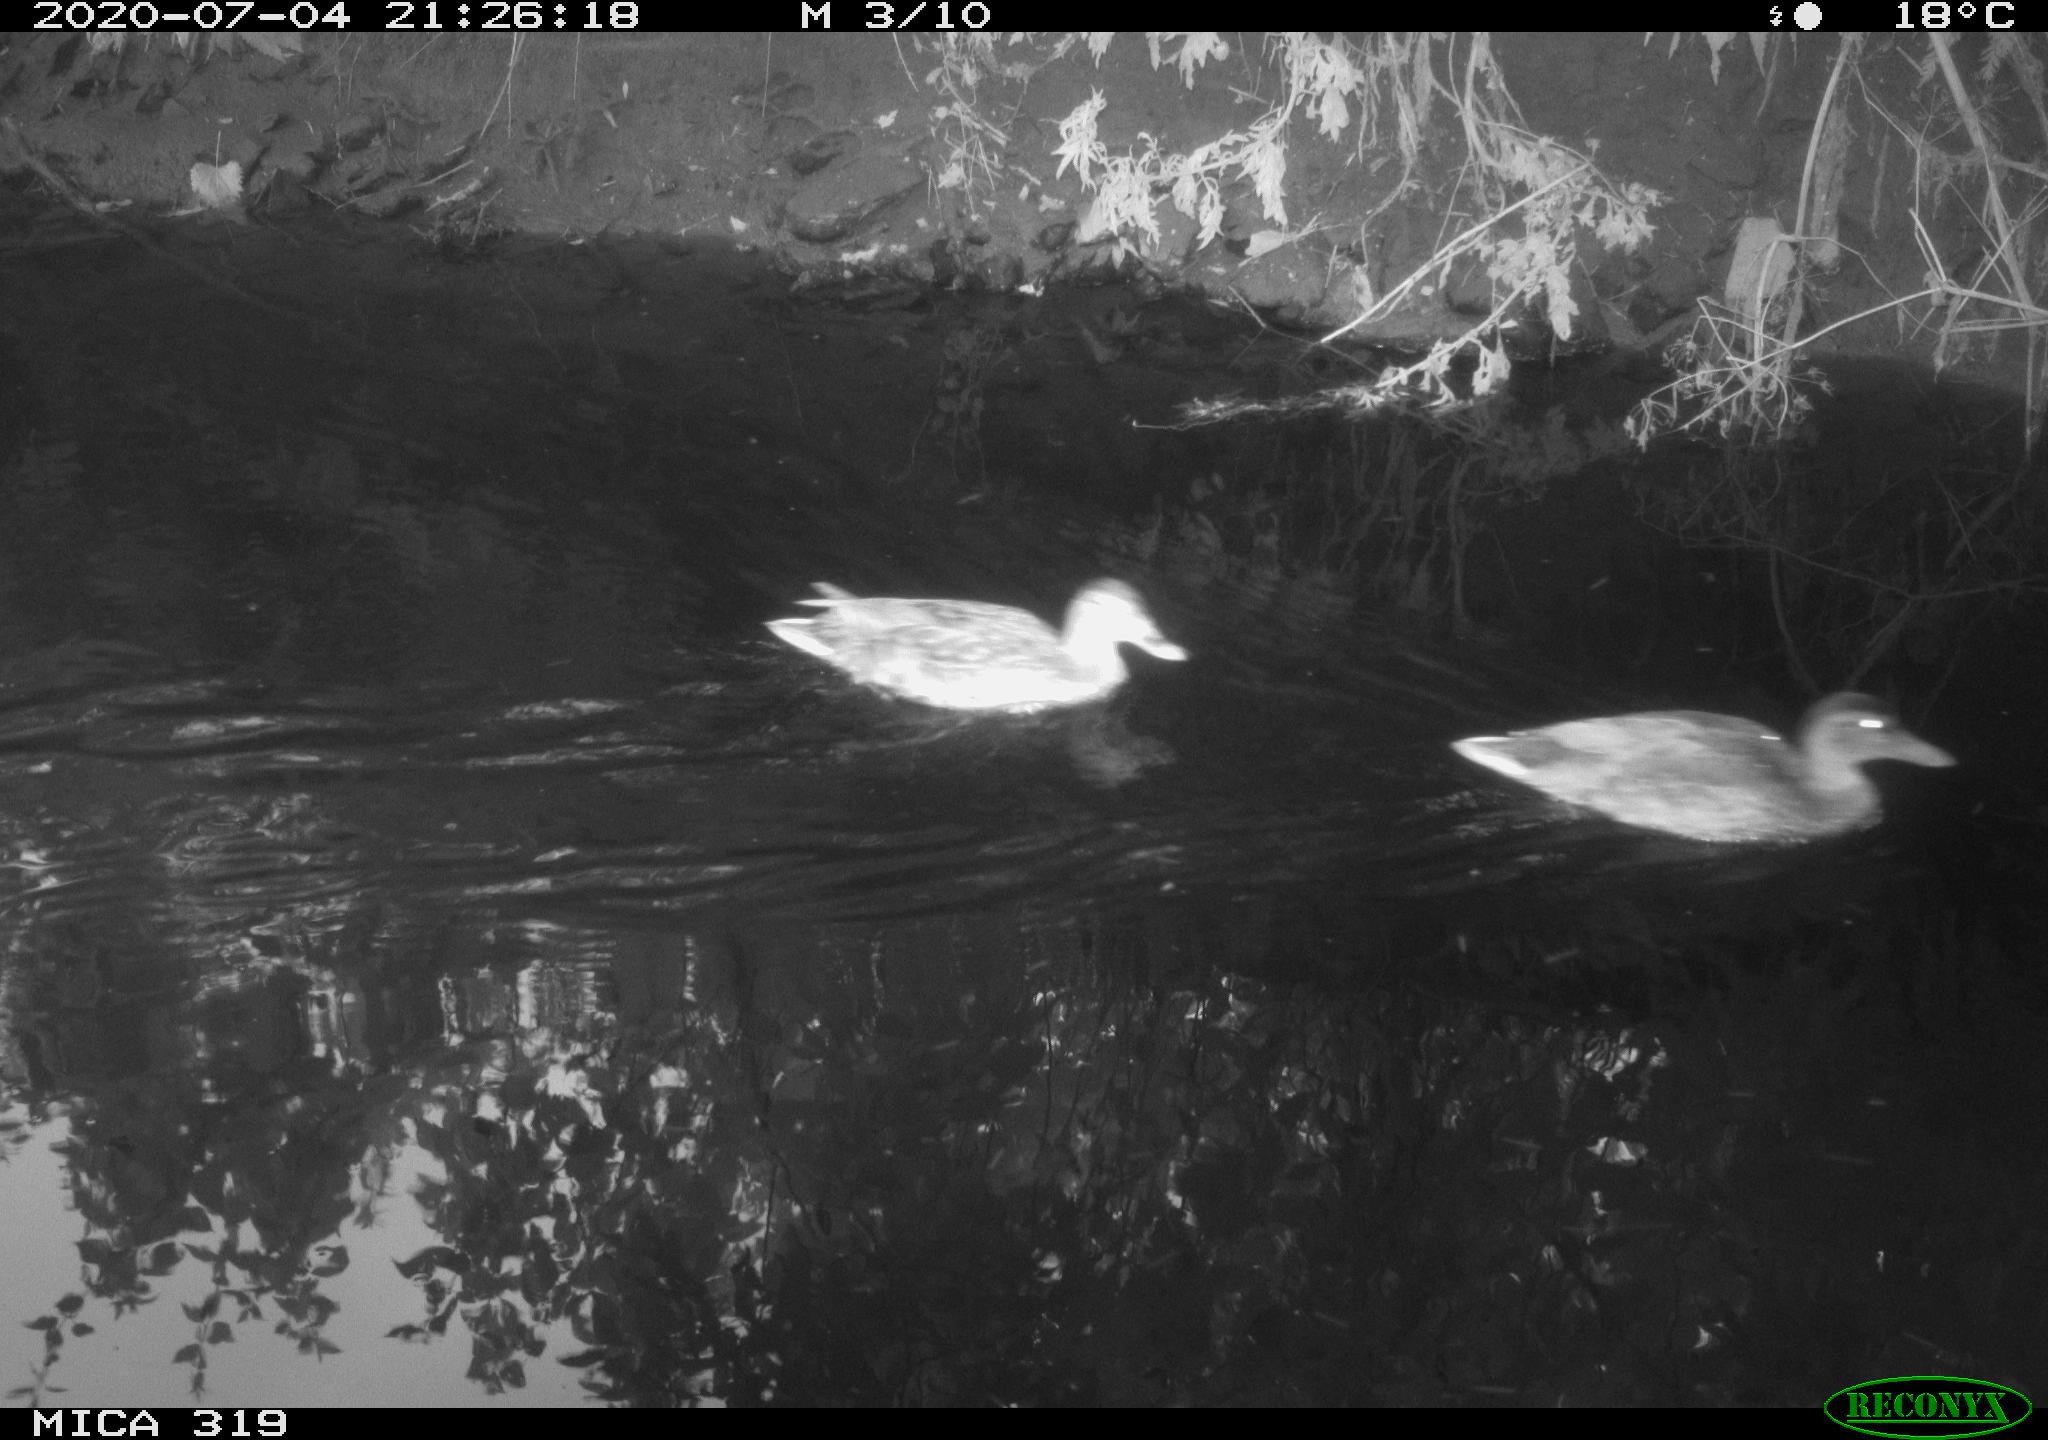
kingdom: Animalia
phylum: Chordata
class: Aves
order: Anseriformes
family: Anatidae
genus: Anas
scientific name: Anas platyrhynchos
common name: Mallard
